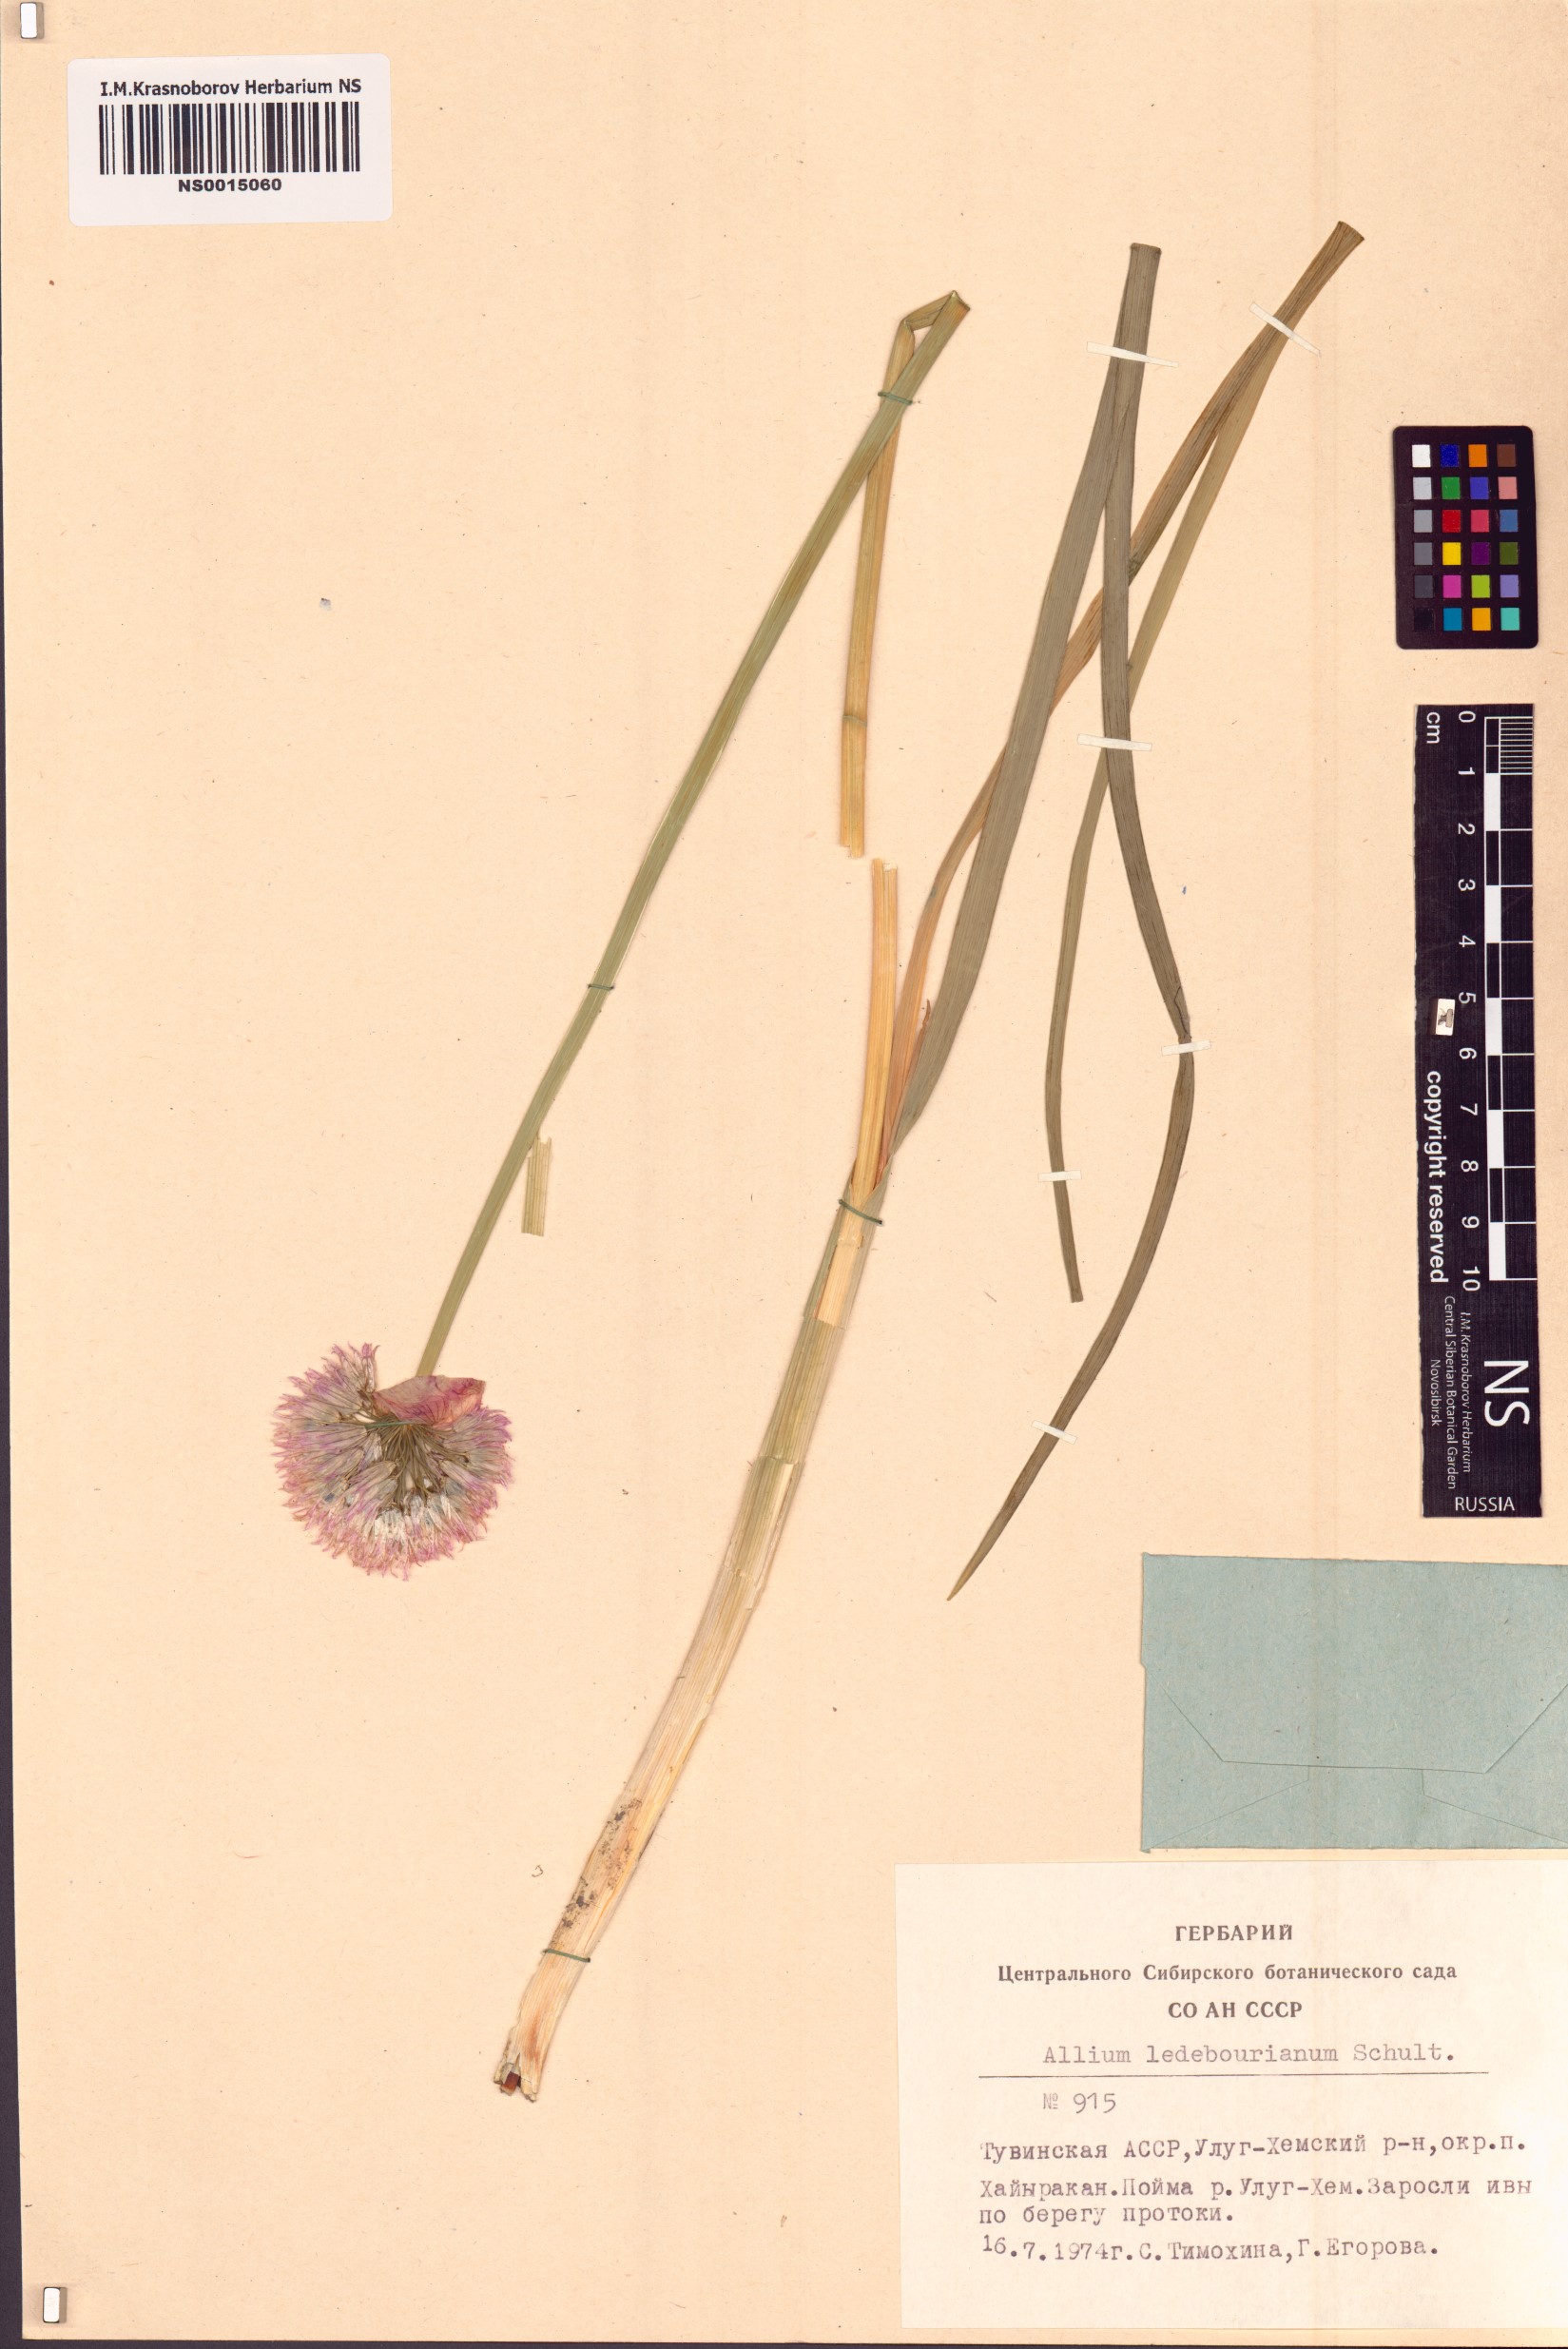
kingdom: Plantae
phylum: Tracheophyta
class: Liliopsida
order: Asparagales
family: Amaryllidaceae
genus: Allium
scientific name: Allium ledebourianum
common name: Ledebour chive
